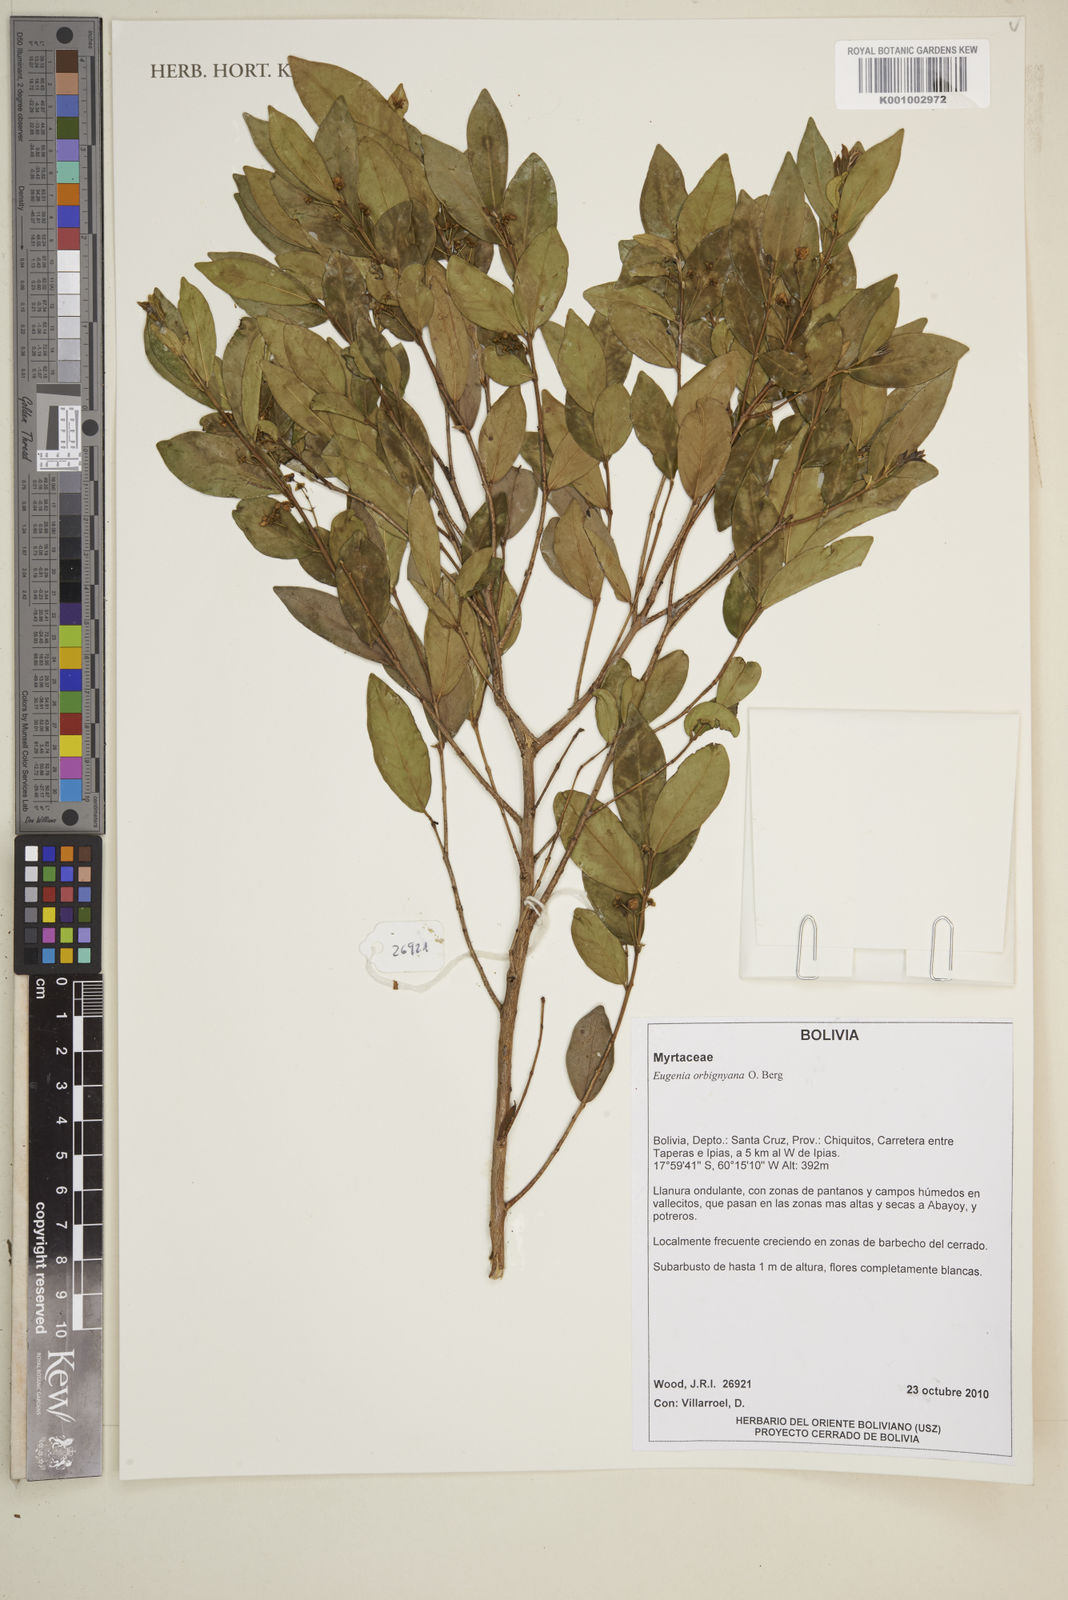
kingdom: Plantae
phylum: Tracheophyta
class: Magnoliopsida
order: Myrtales
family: Myrtaceae
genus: Eugenia
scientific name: Eugenia orbignyana
